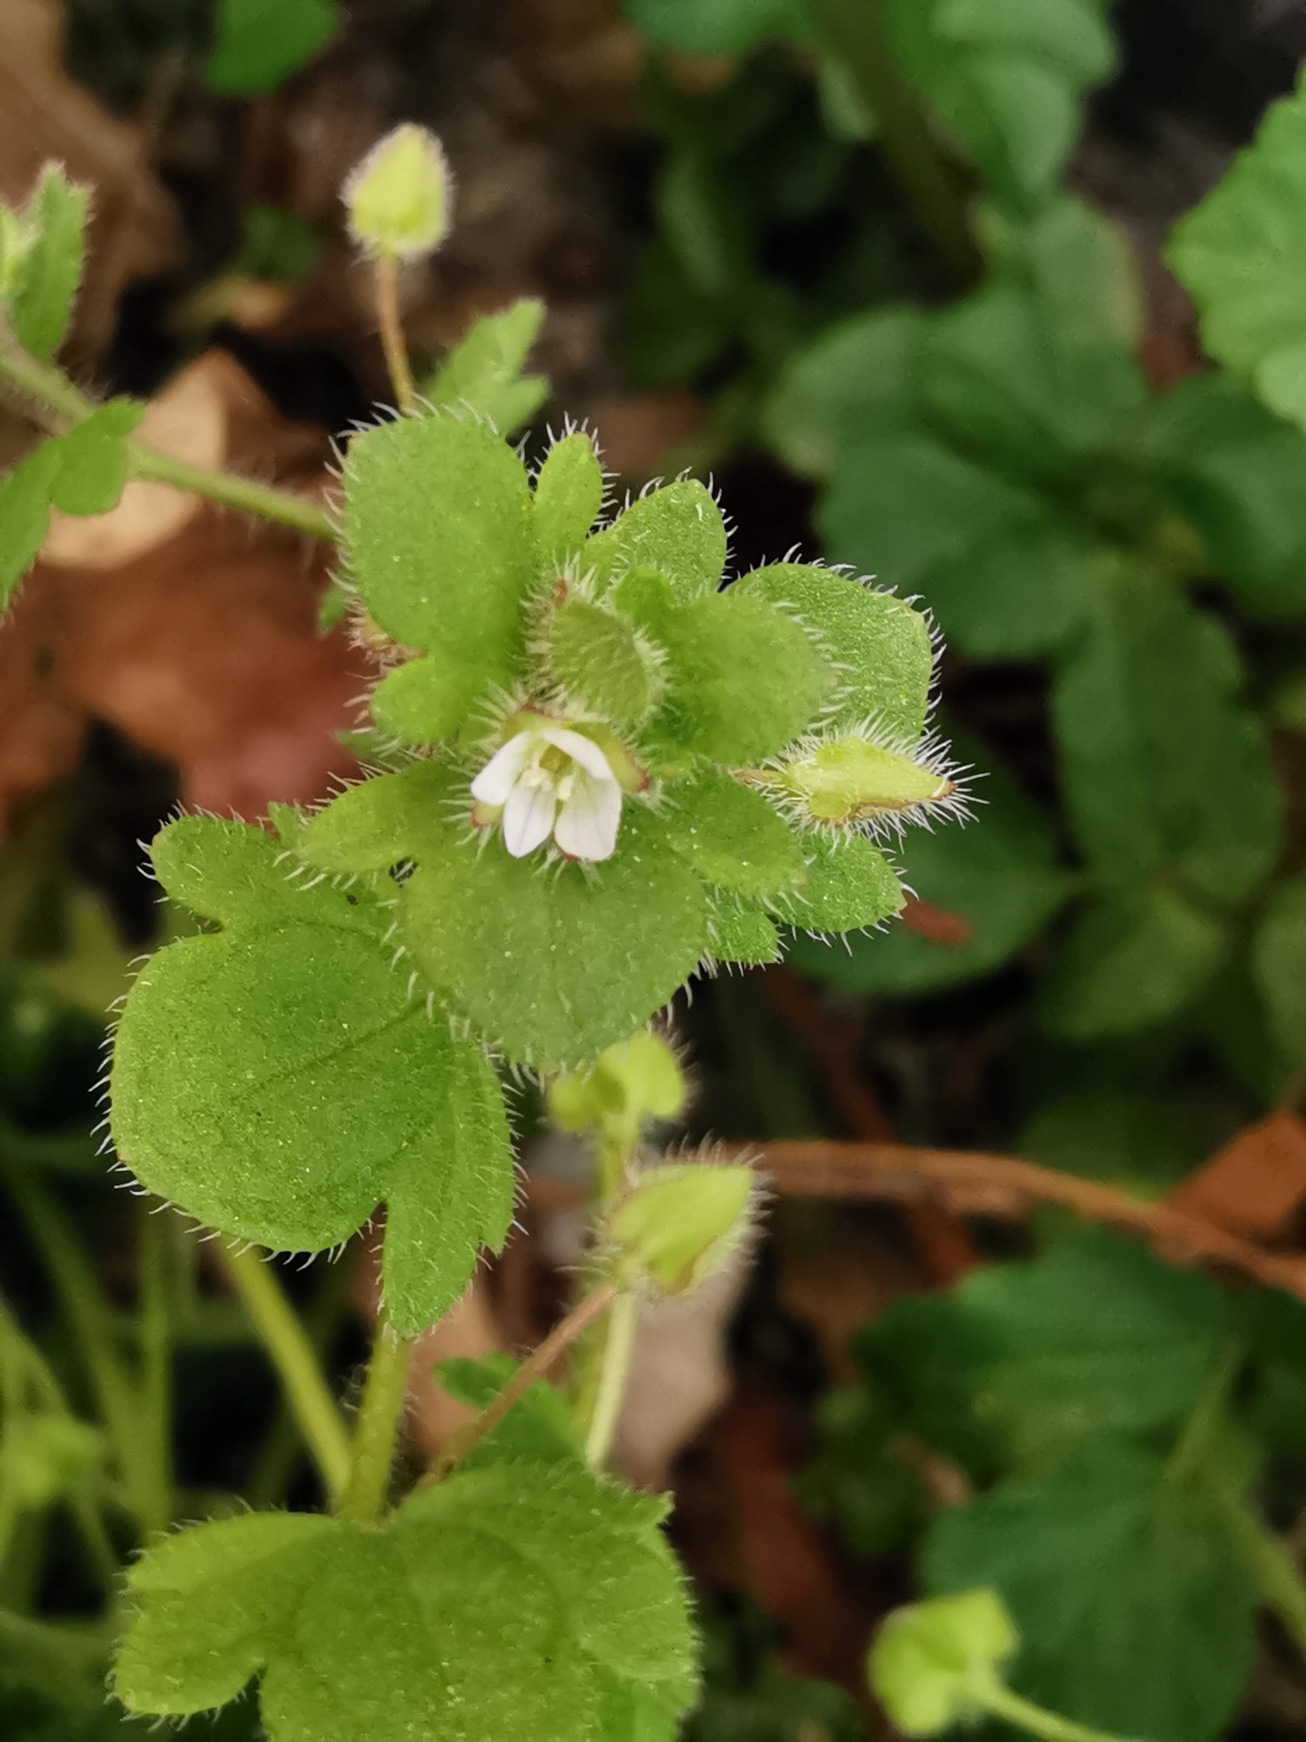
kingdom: Plantae
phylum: Tracheophyta
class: Magnoliopsida
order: Lamiales
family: Plantaginaceae
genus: Veronica
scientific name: Veronica hederifolia
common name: Vedbend-ærenpris
